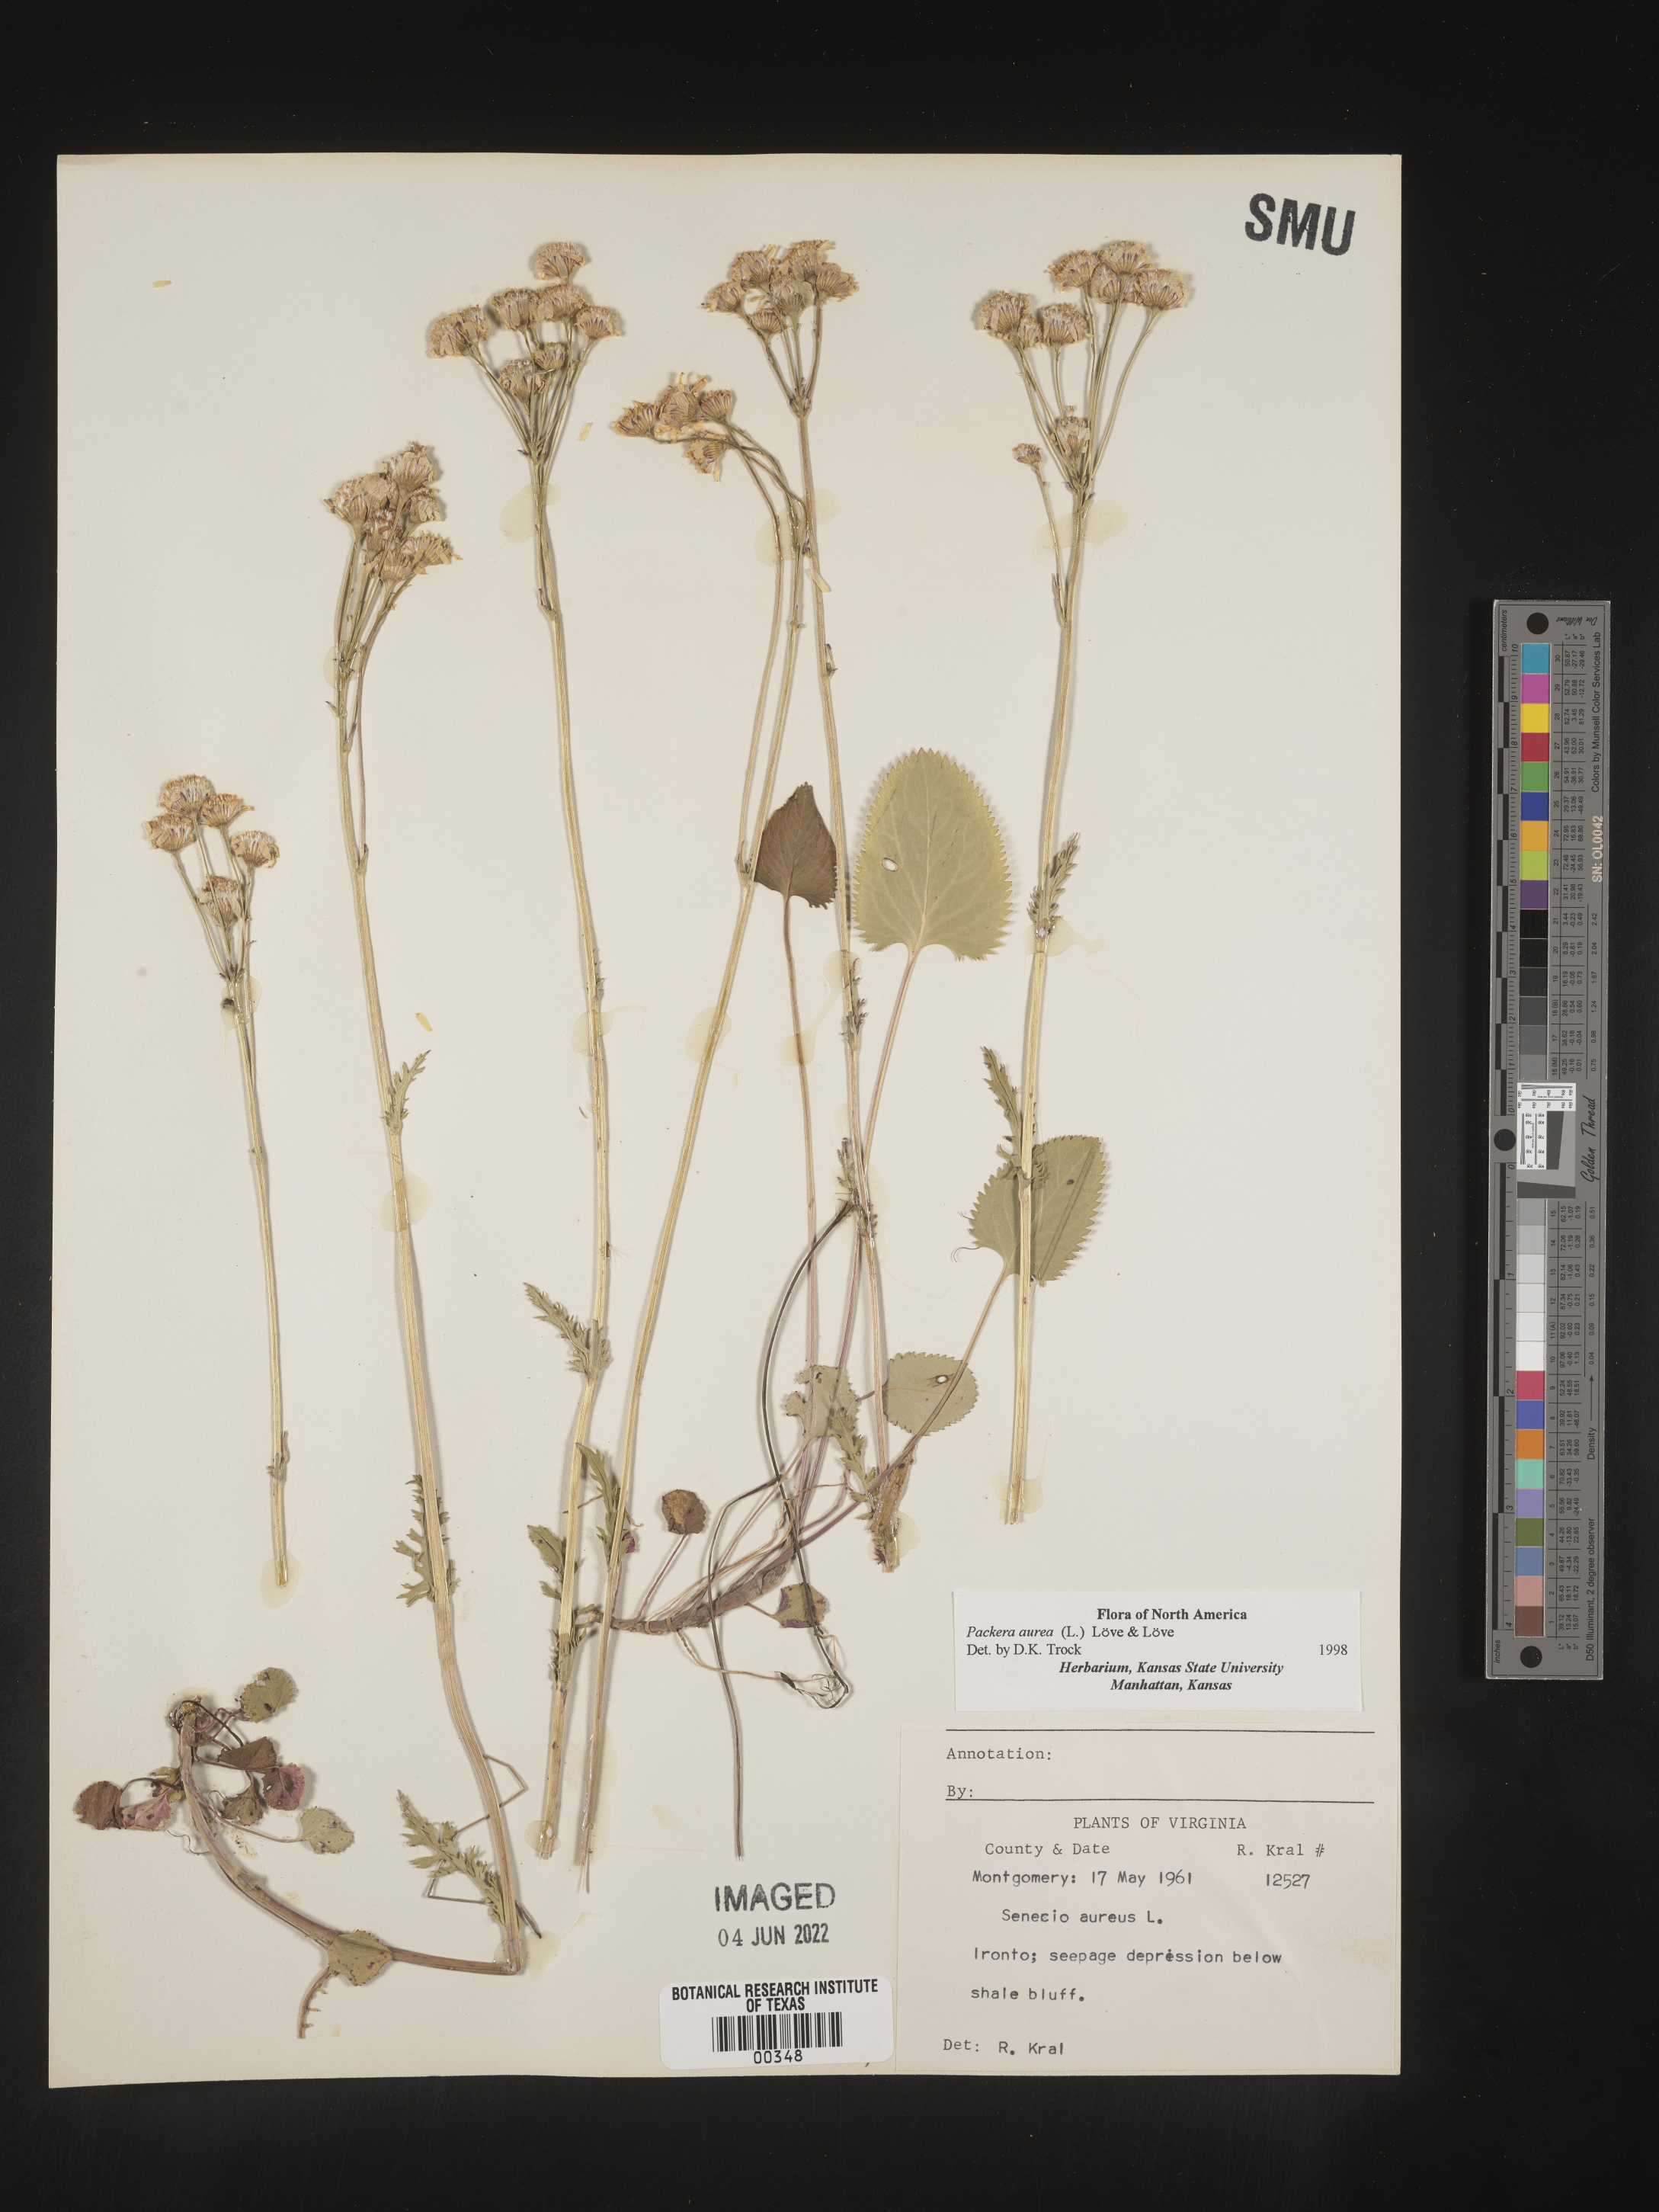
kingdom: Plantae
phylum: Tracheophyta
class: Magnoliopsida
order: Asterales
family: Asteraceae
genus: Packera
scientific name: Packera aurea
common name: Golden groundsel
